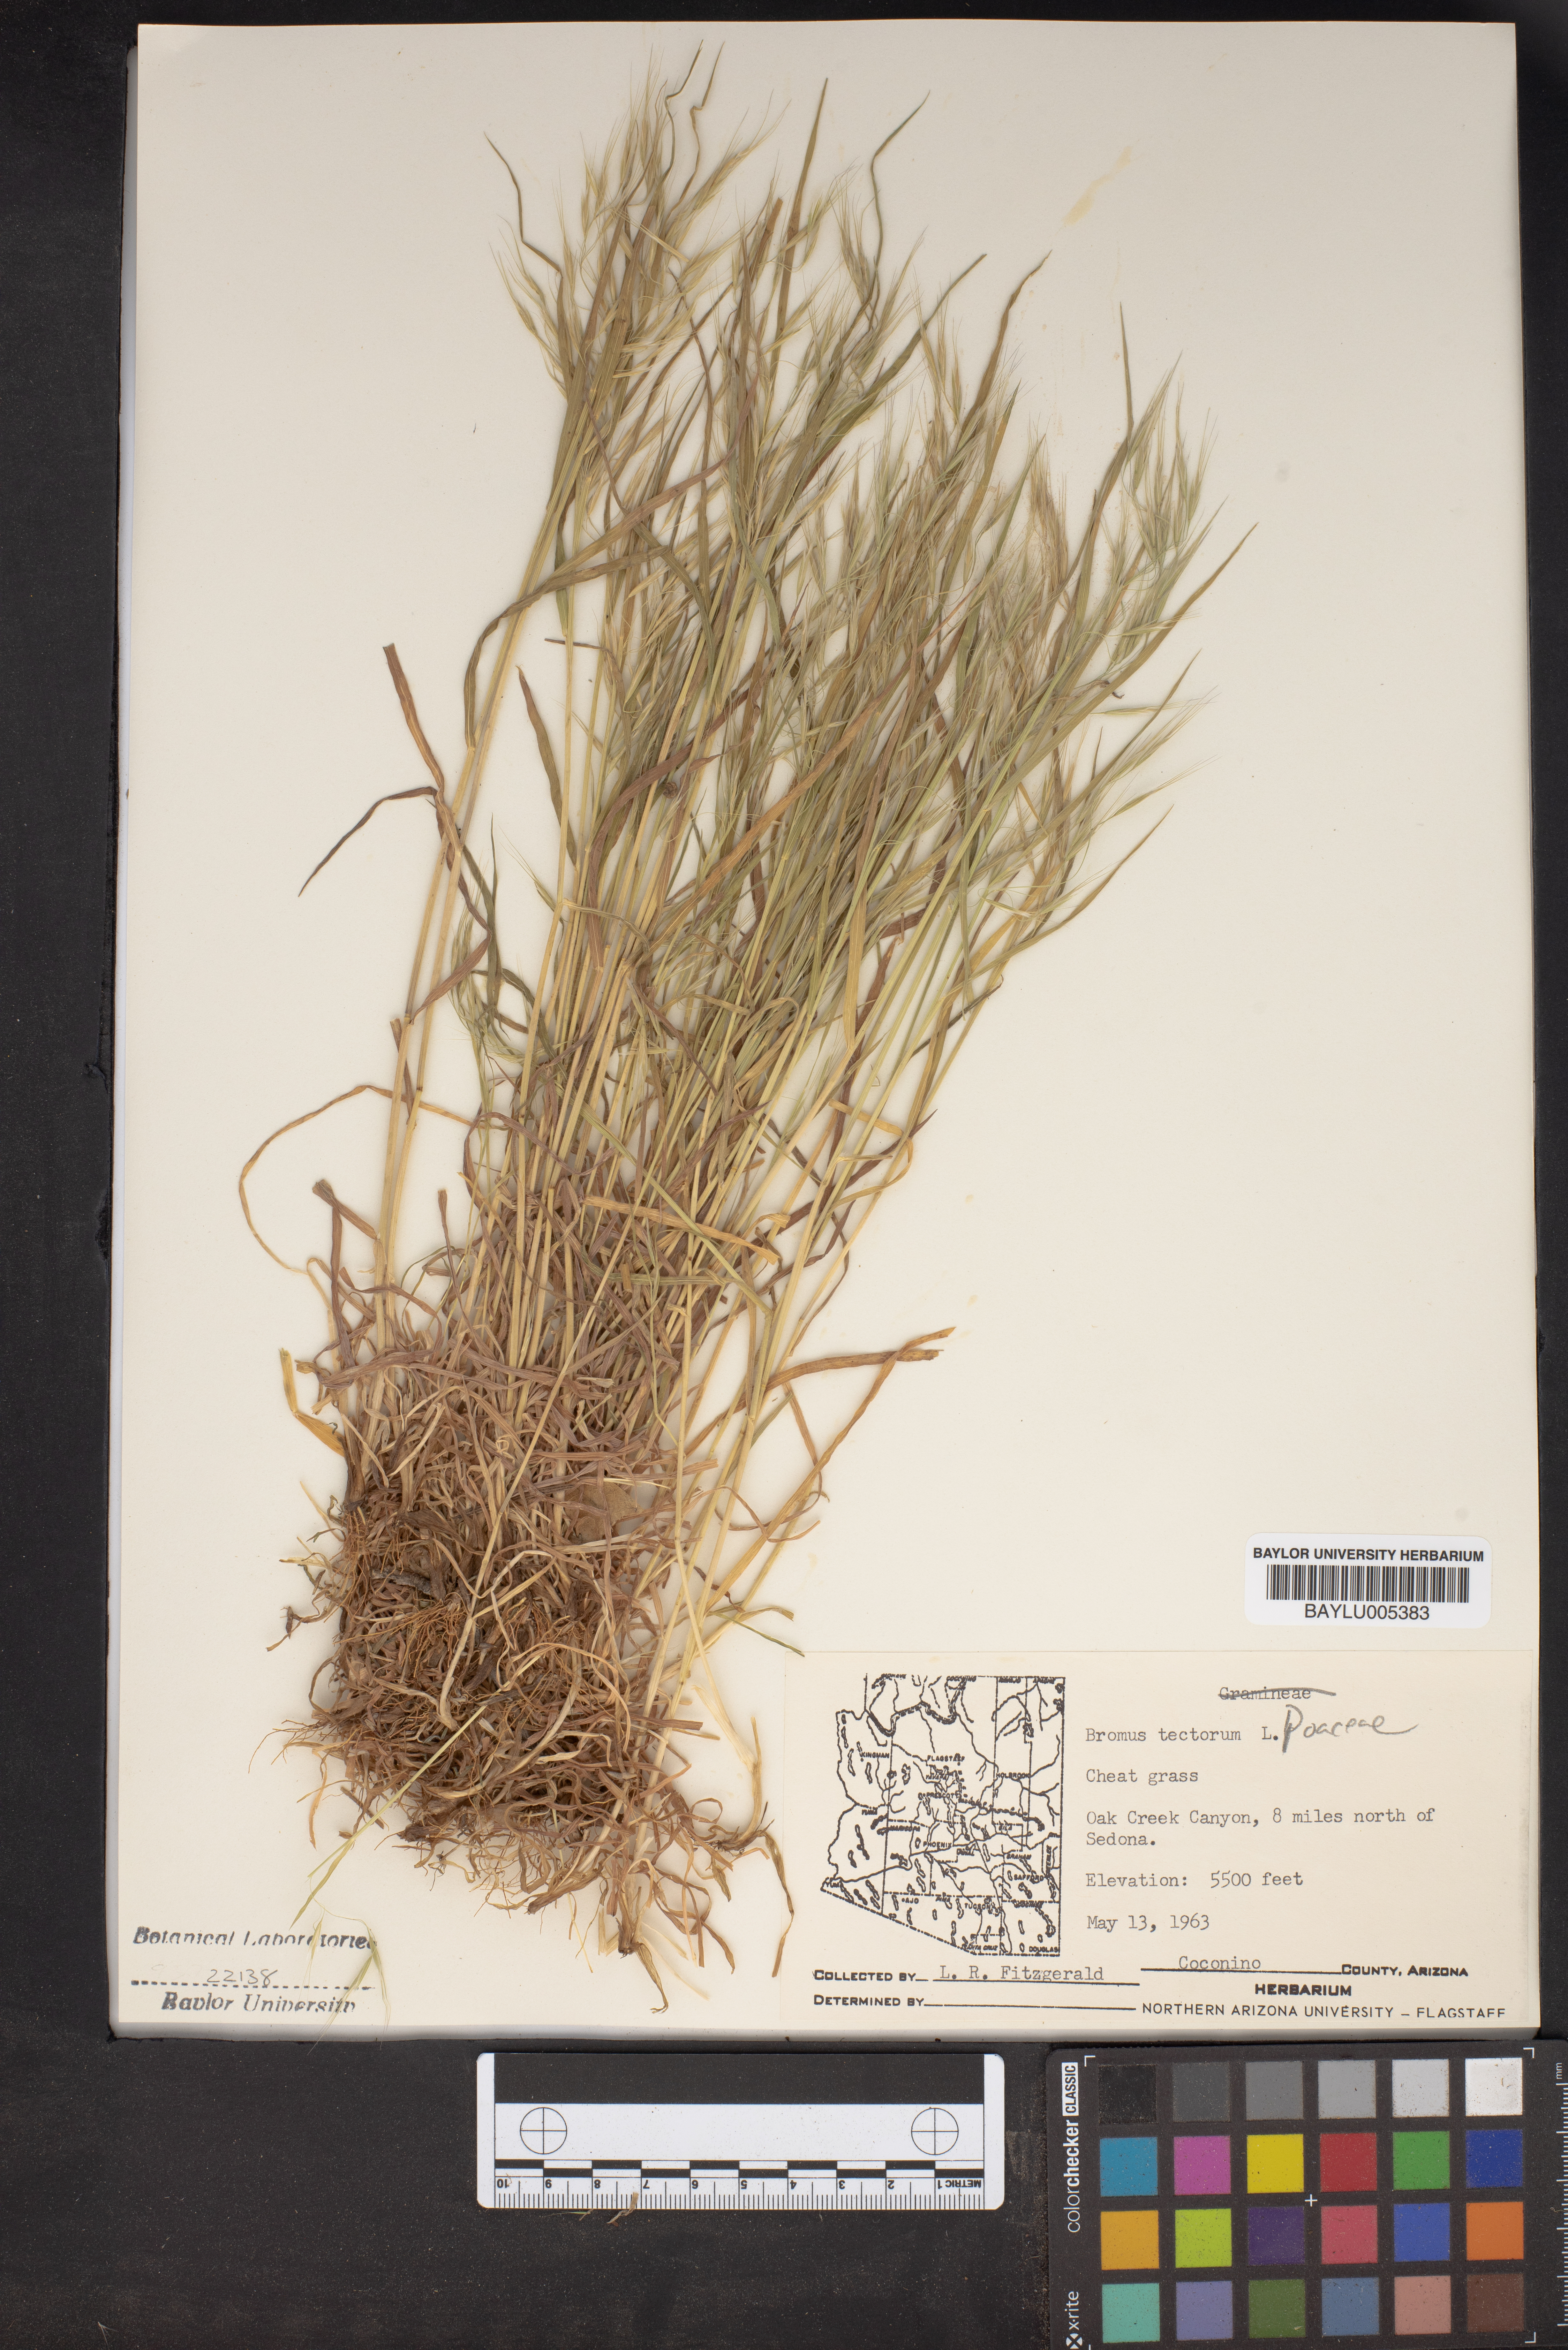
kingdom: Plantae
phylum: Tracheophyta
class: Liliopsida
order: Poales
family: Poaceae
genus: Bromus
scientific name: Bromus tectorum
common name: Cheatgrass
